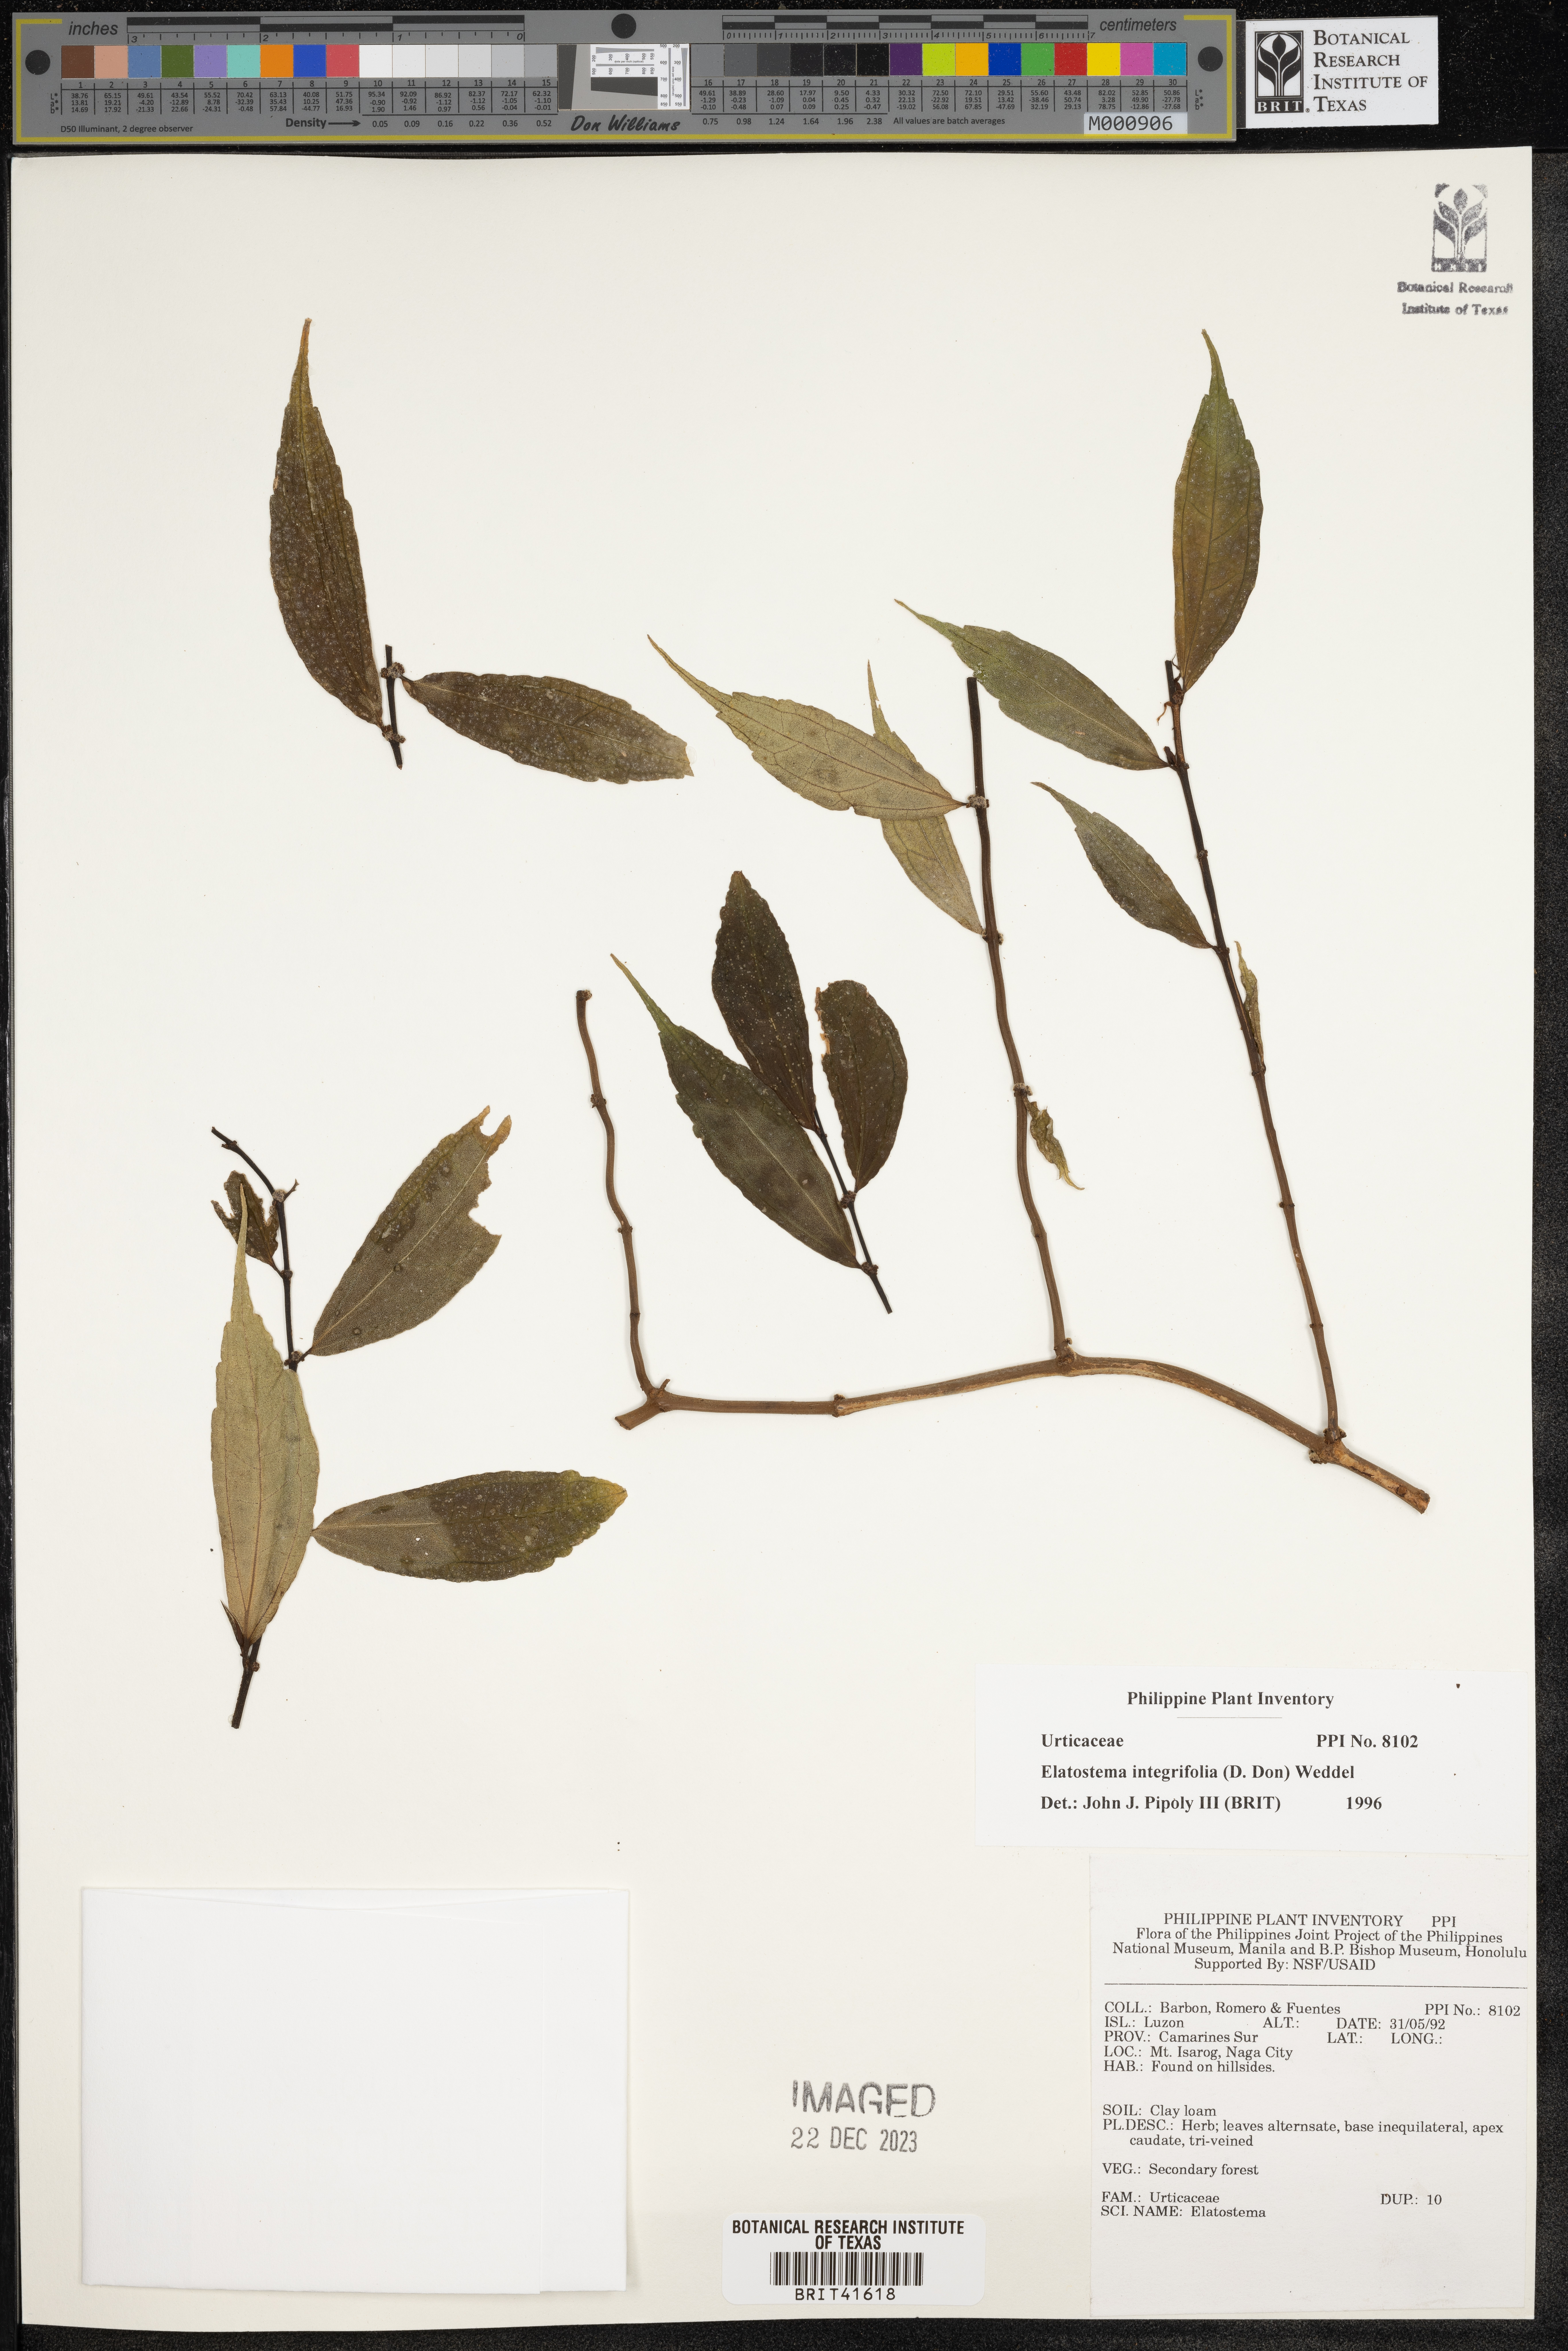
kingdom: Plantae
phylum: Tracheophyta
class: Magnoliopsida
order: Rosales
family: Urticaceae
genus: Elatostema
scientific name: Elatostema integrifolium
